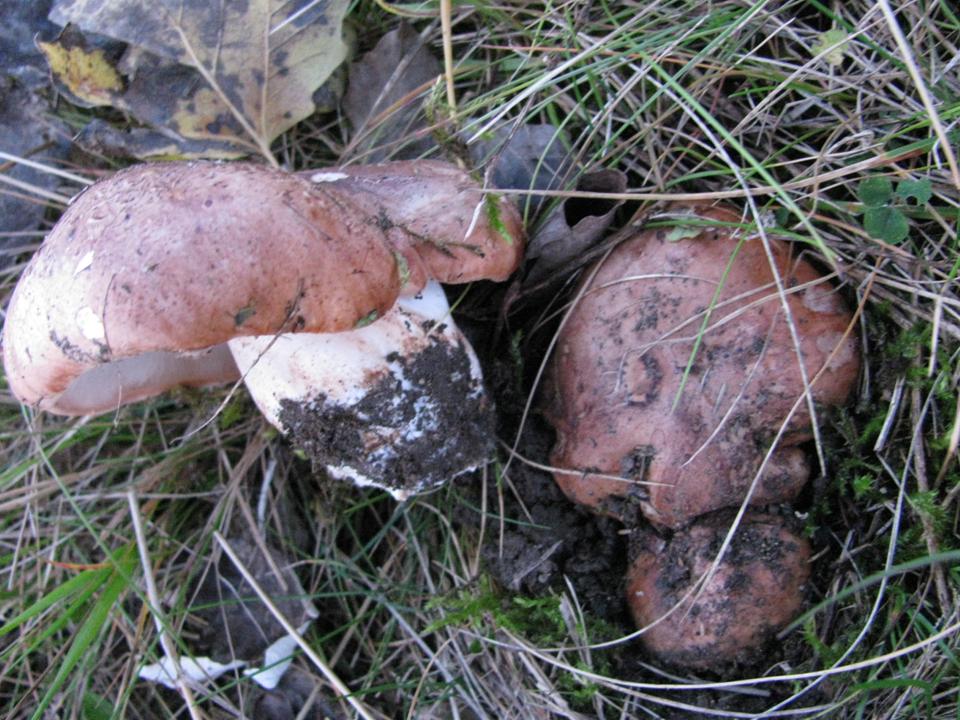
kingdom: Fungi
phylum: Basidiomycota
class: Agaricomycetes
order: Agaricales
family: Tricholomataceae
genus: Tricholoma
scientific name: Tricholoma populinum
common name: poppel-ridderhat
